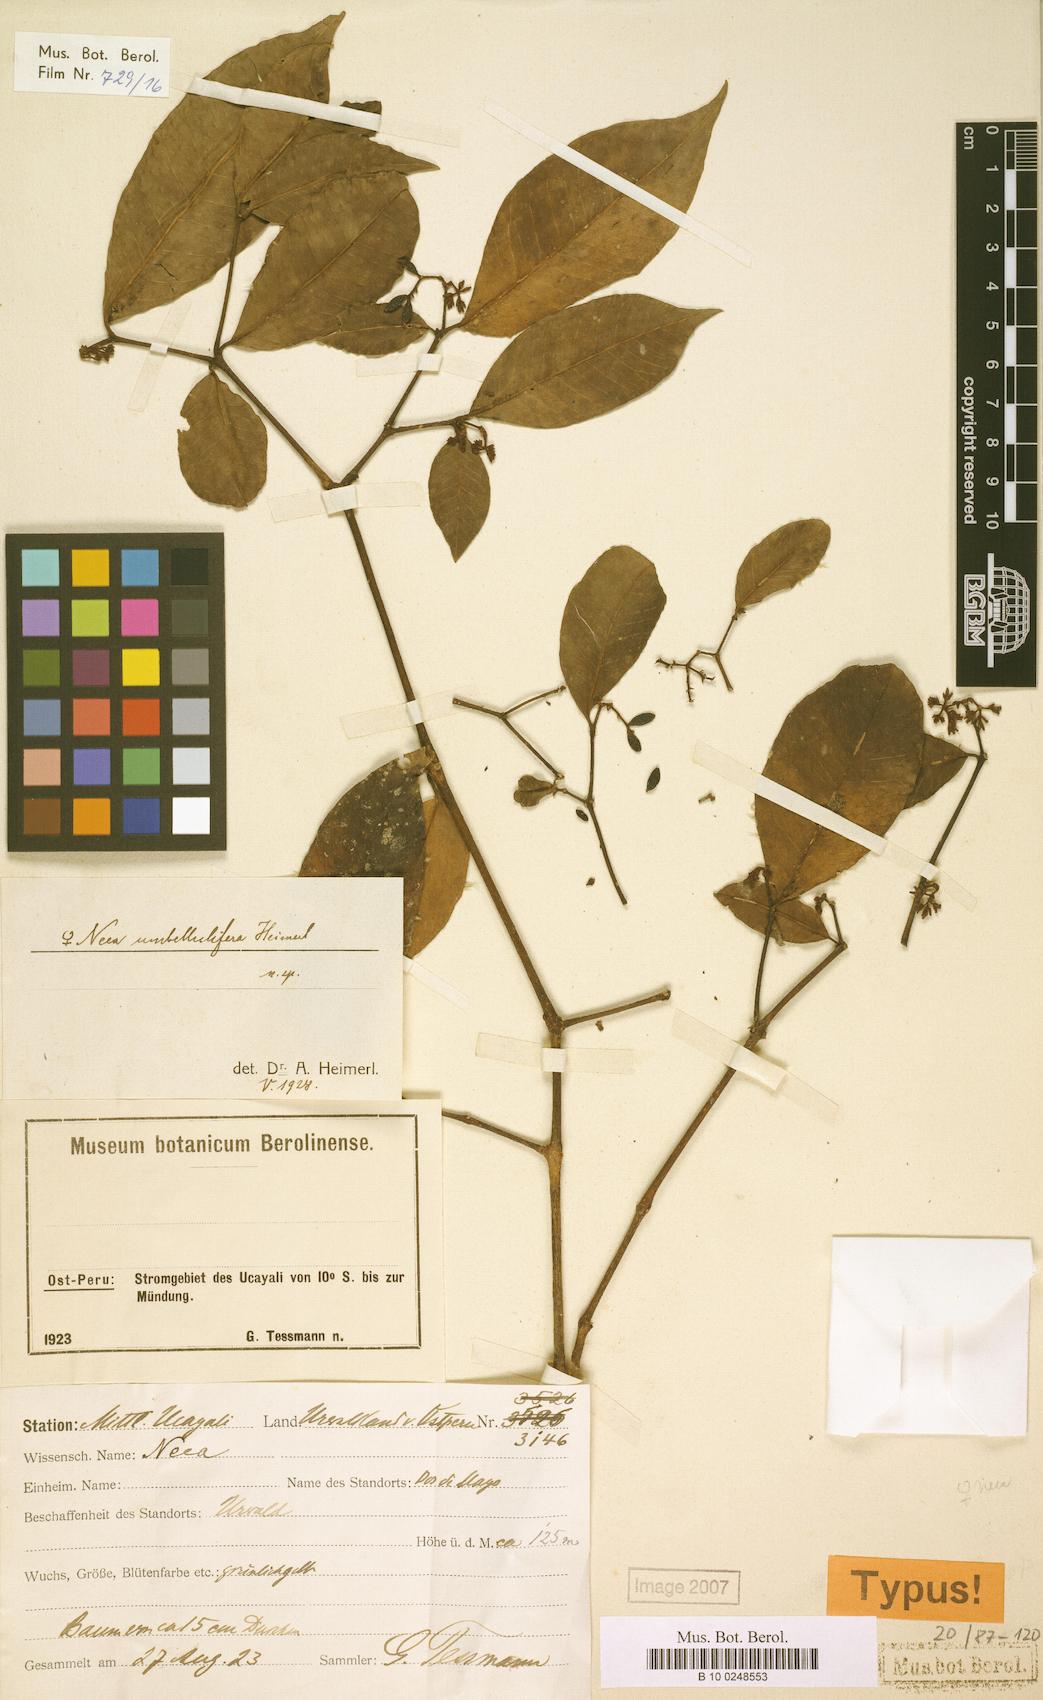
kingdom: Plantae
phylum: Tracheophyta
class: Magnoliopsida
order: Caryophyllales
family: Nyctaginaceae
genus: Neea
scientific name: Neea umbellifera
